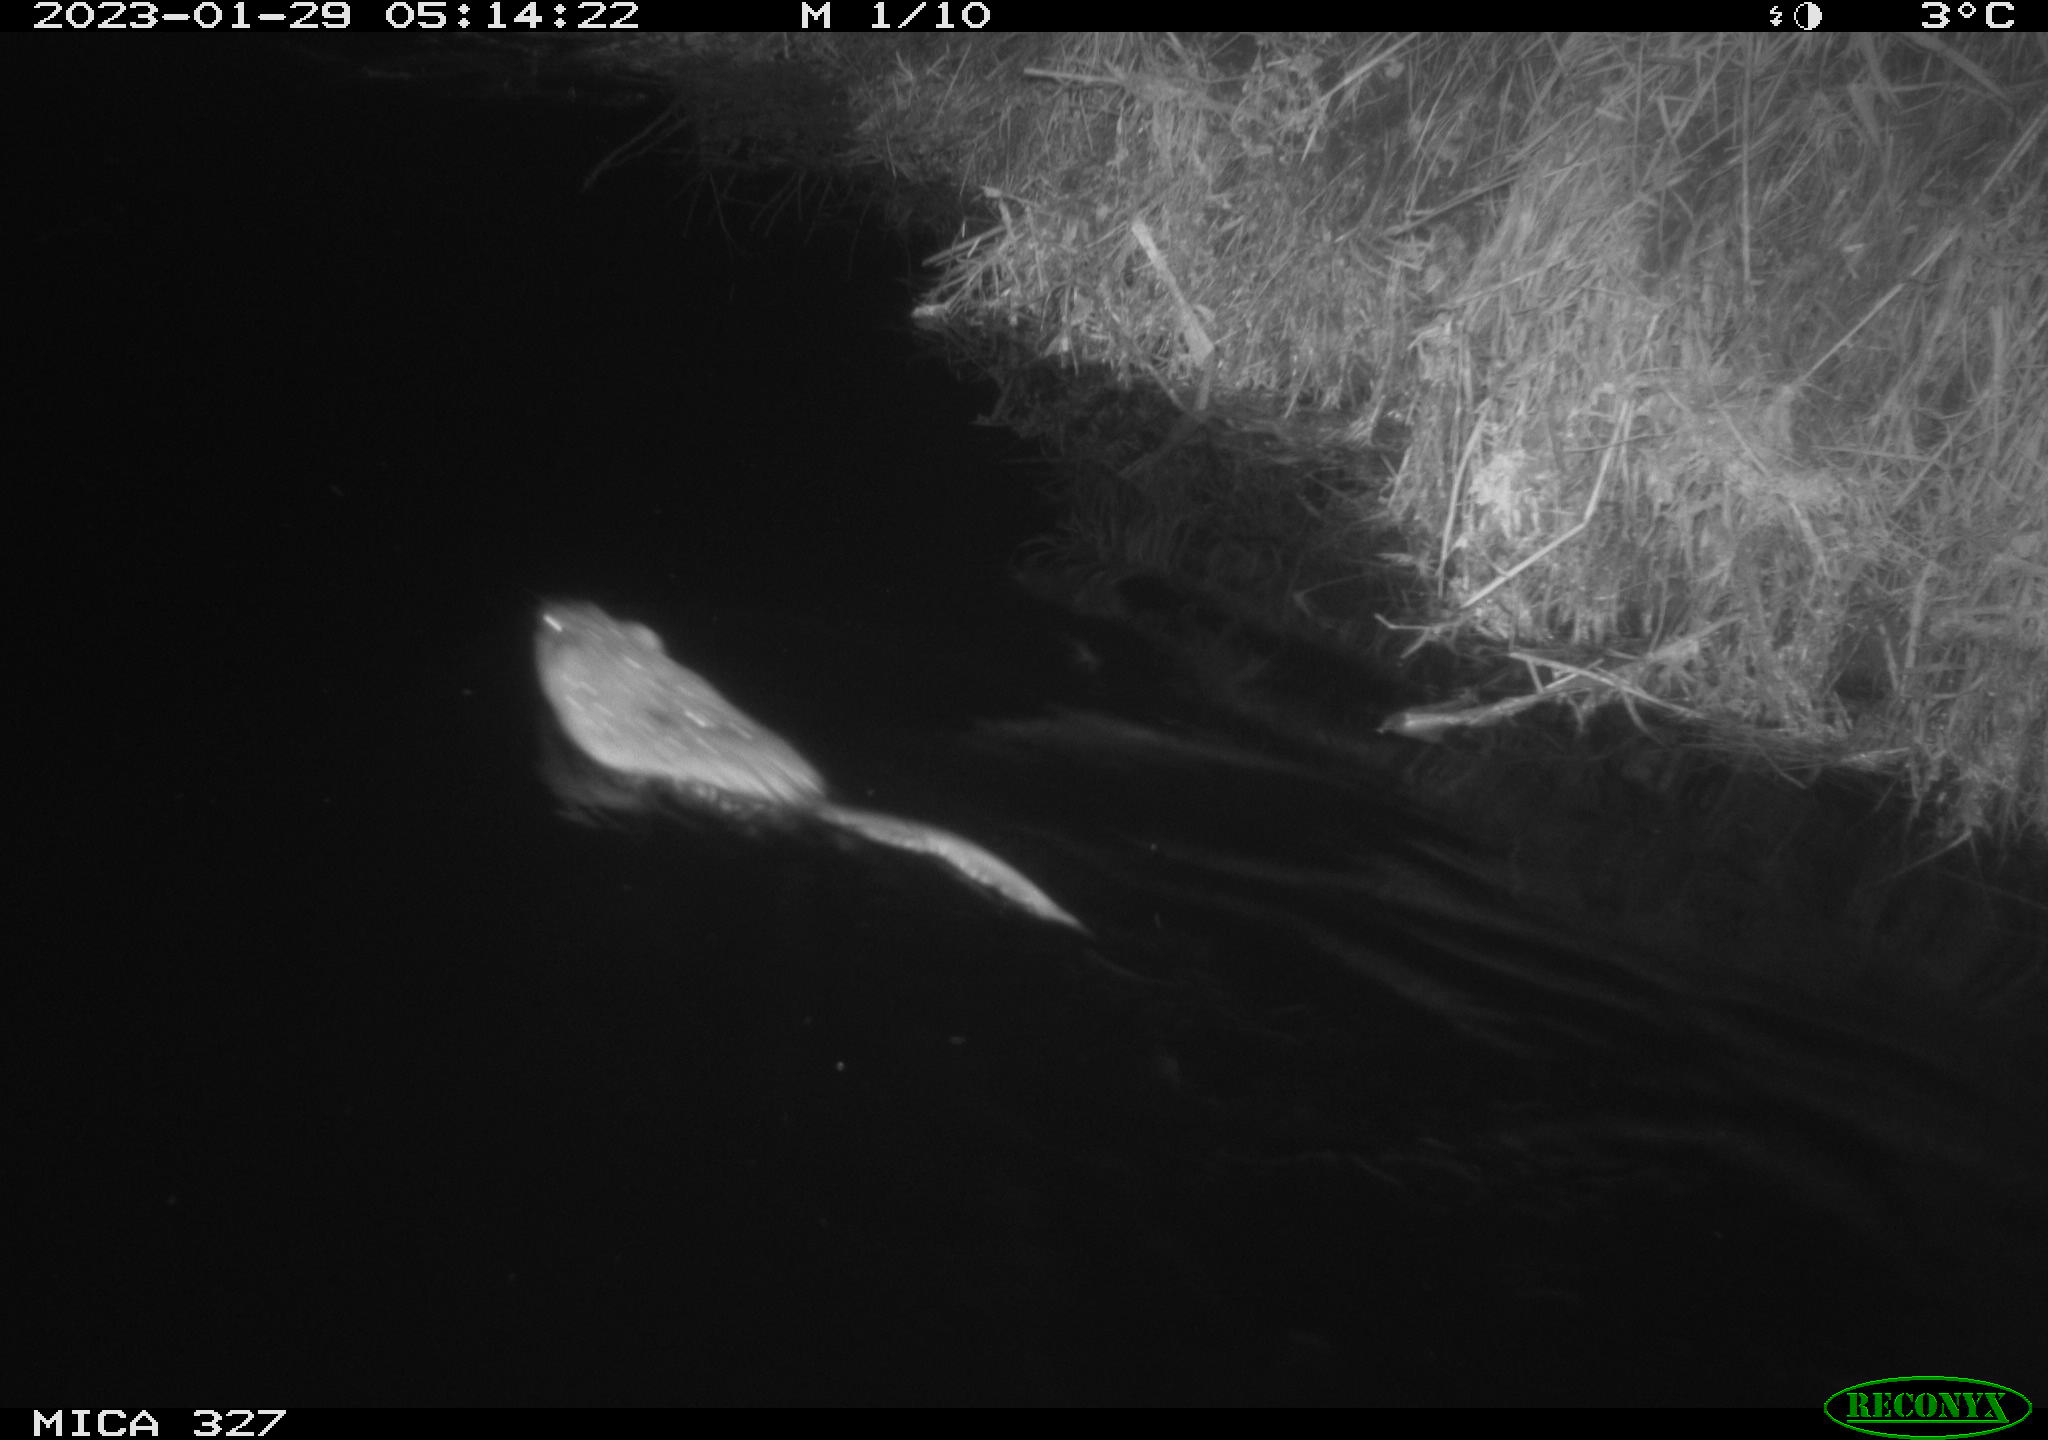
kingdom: Animalia
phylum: Chordata
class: Mammalia
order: Rodentia
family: Cricetidae
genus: Ondatra
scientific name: Ondatra zibethicus
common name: Muskrat
